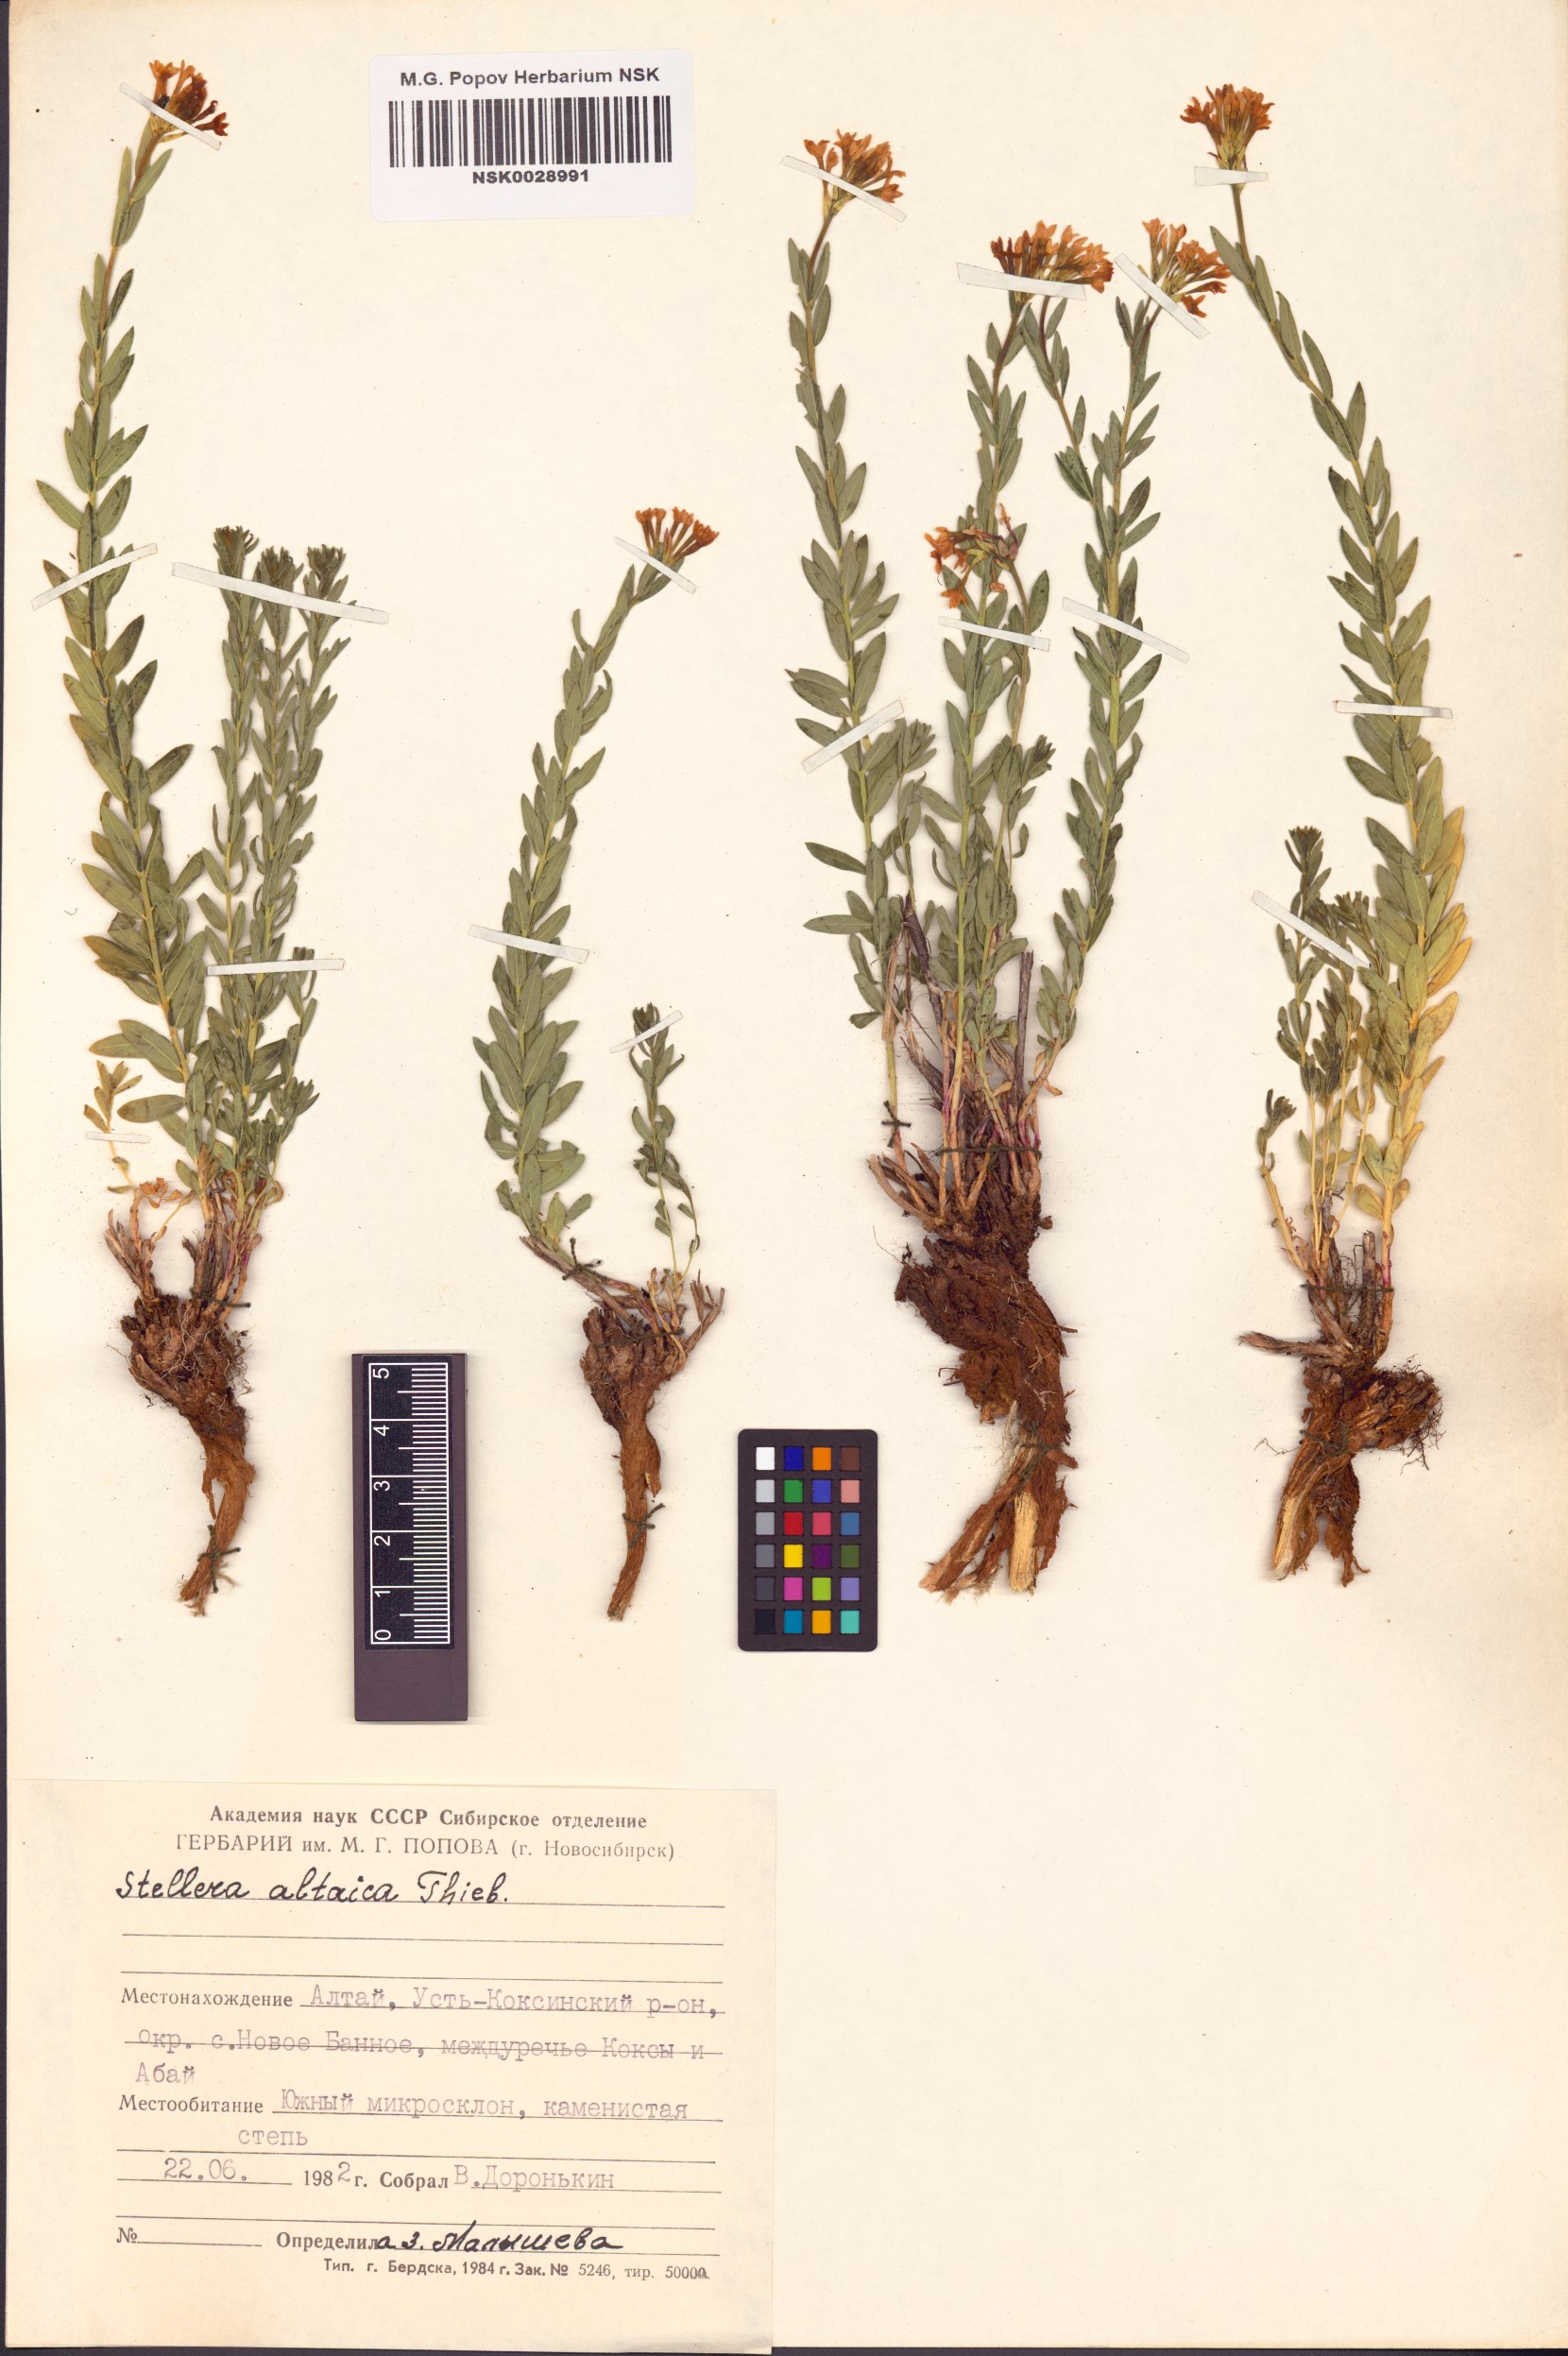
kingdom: Plantae
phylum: Tracheophyta
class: Magnoliopsida
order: Malvales
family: Thymelaeaceae
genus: Diarthron
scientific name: Diarthron altaicum
